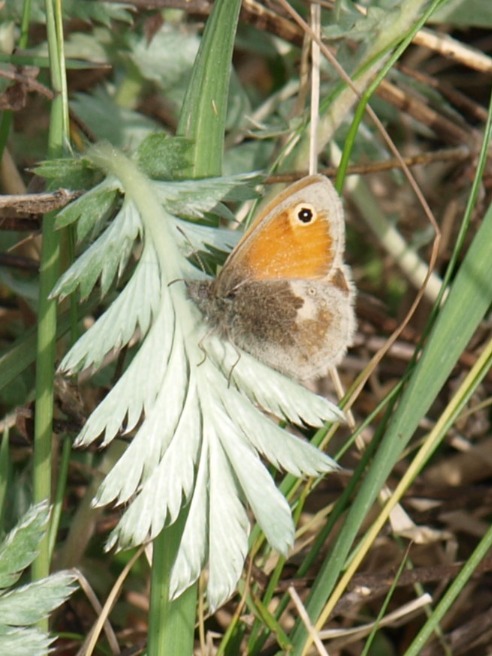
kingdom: Animalia
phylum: Arthropoda
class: Insecta
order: Lepidoptera
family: Nymphalidae
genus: Coenonympha
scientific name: Coenonympha pamphilus
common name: Okkergul randøje
